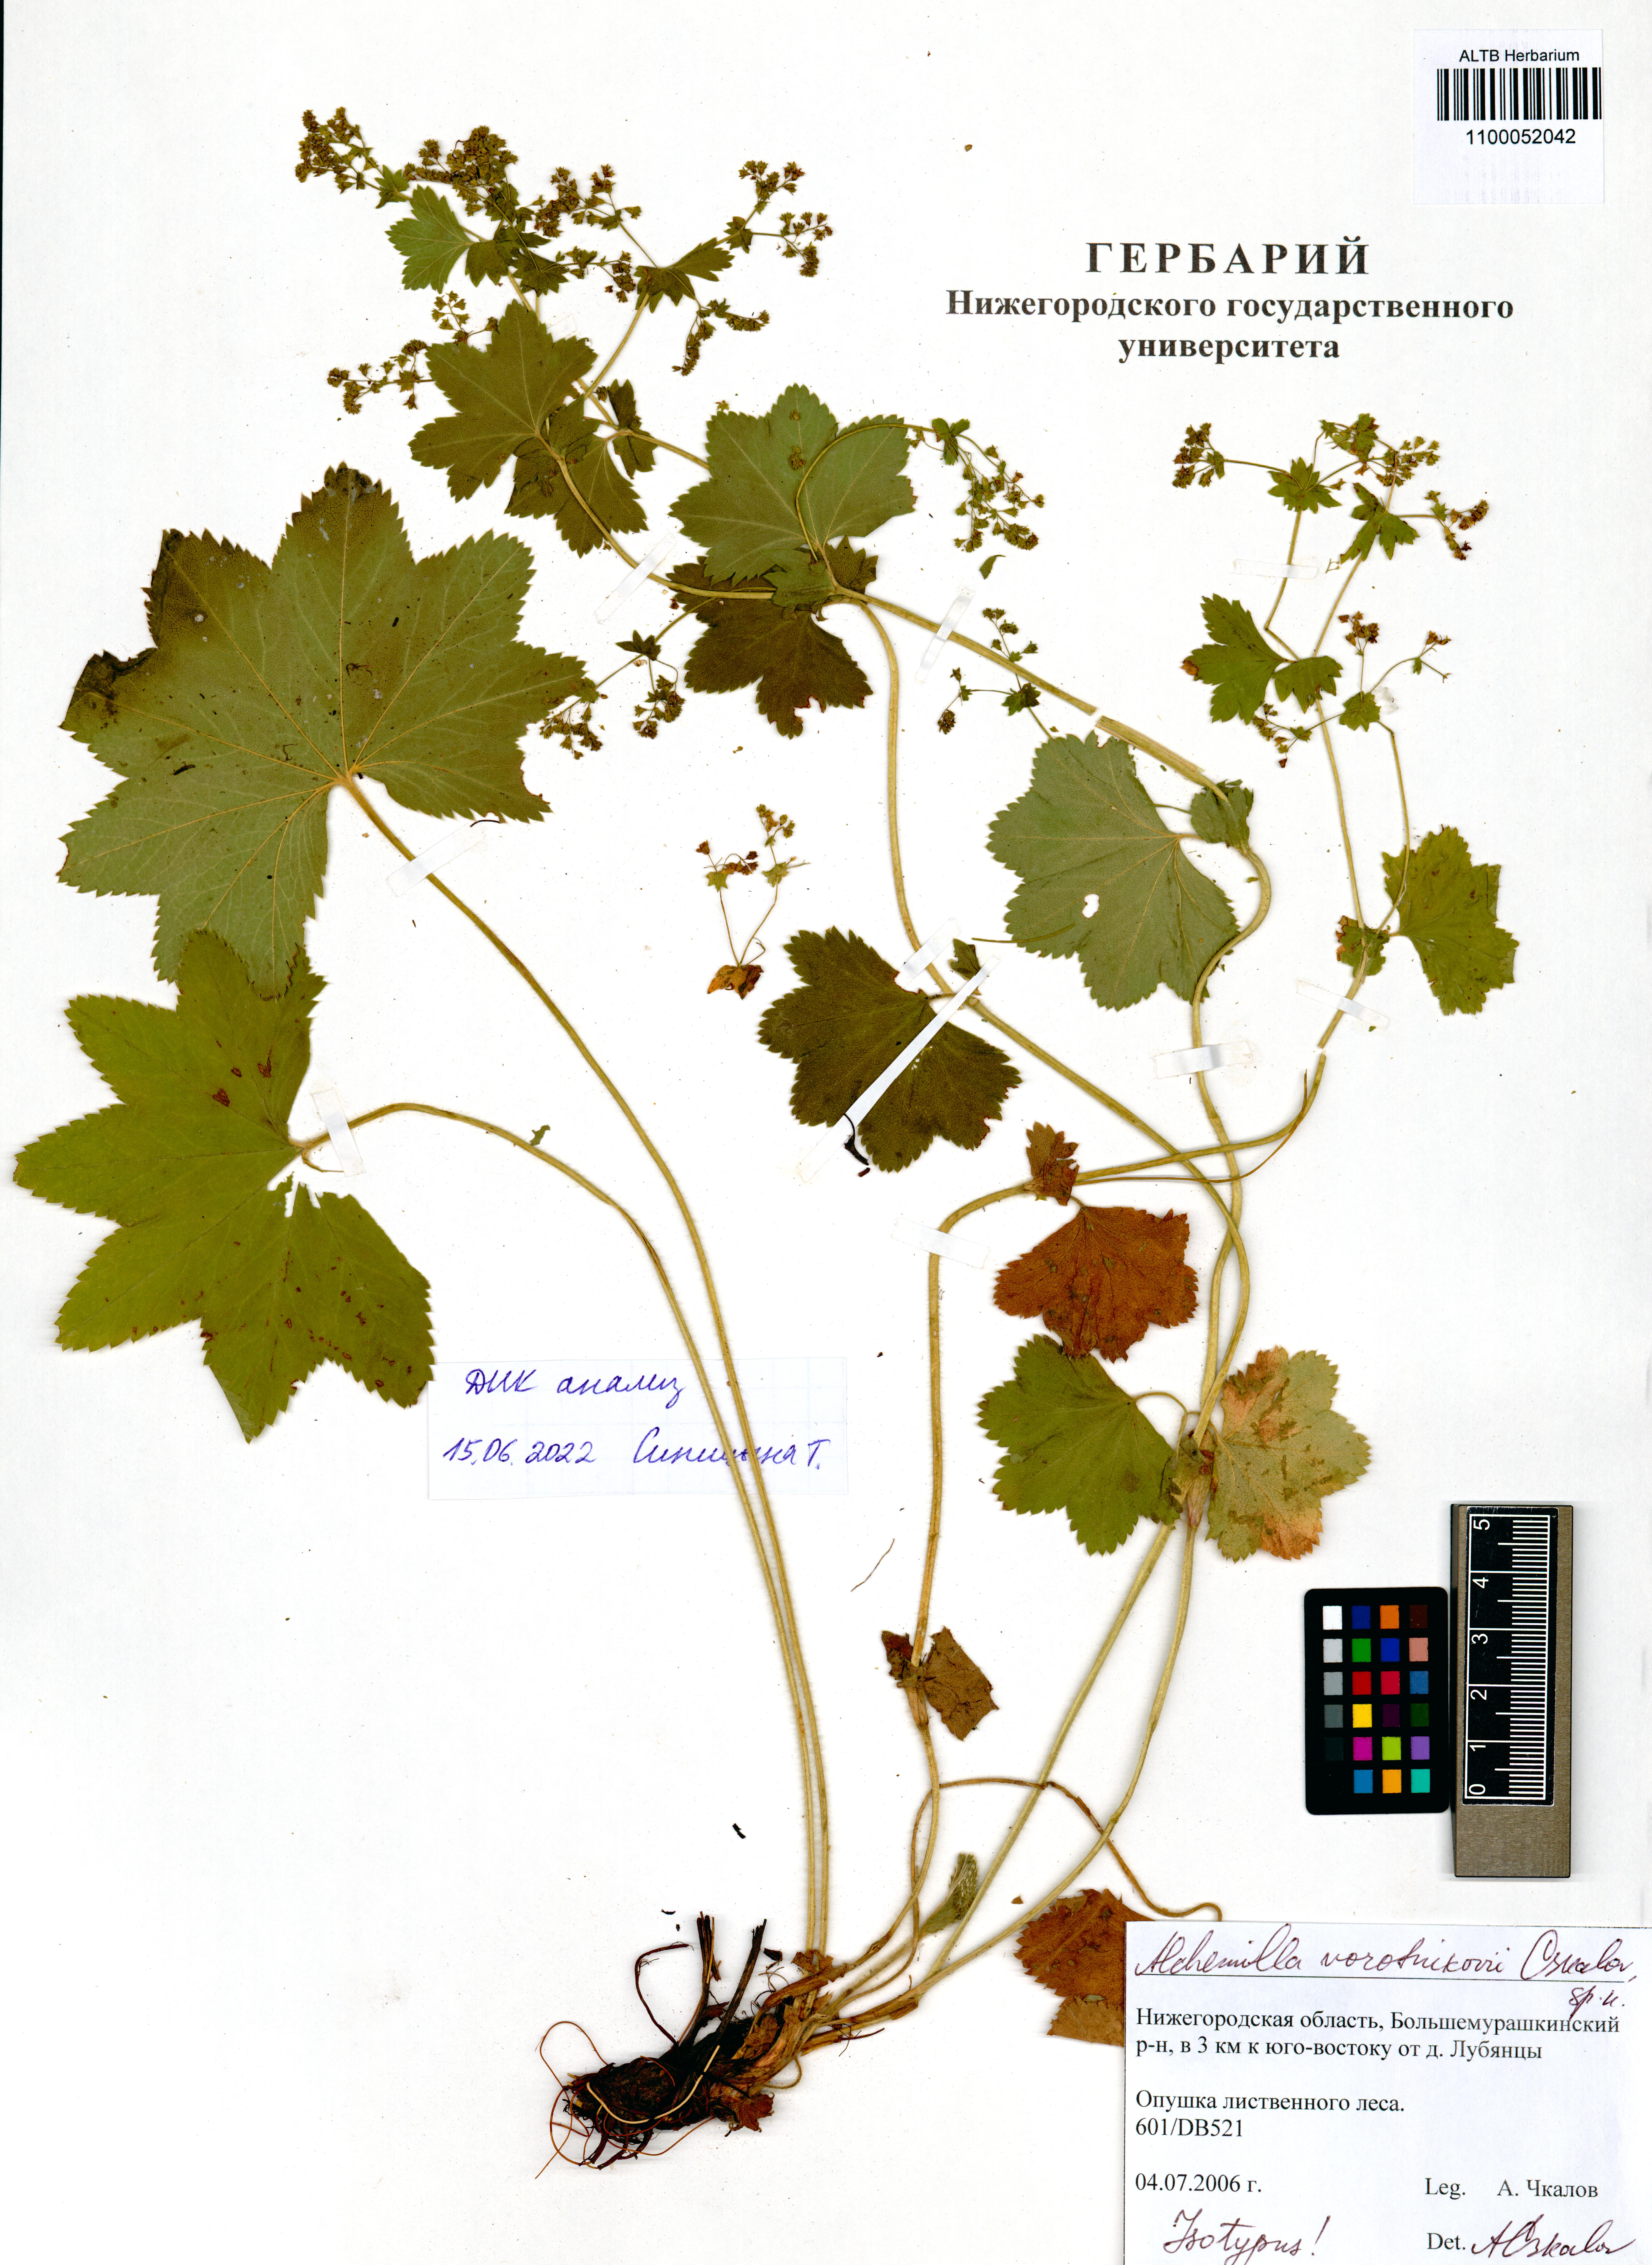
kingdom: Plantae
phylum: Tracheophyta
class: Magnoliopsida
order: Rosales
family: Rosaceae
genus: Alchemilla
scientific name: Alchemilla vorotnikovii
